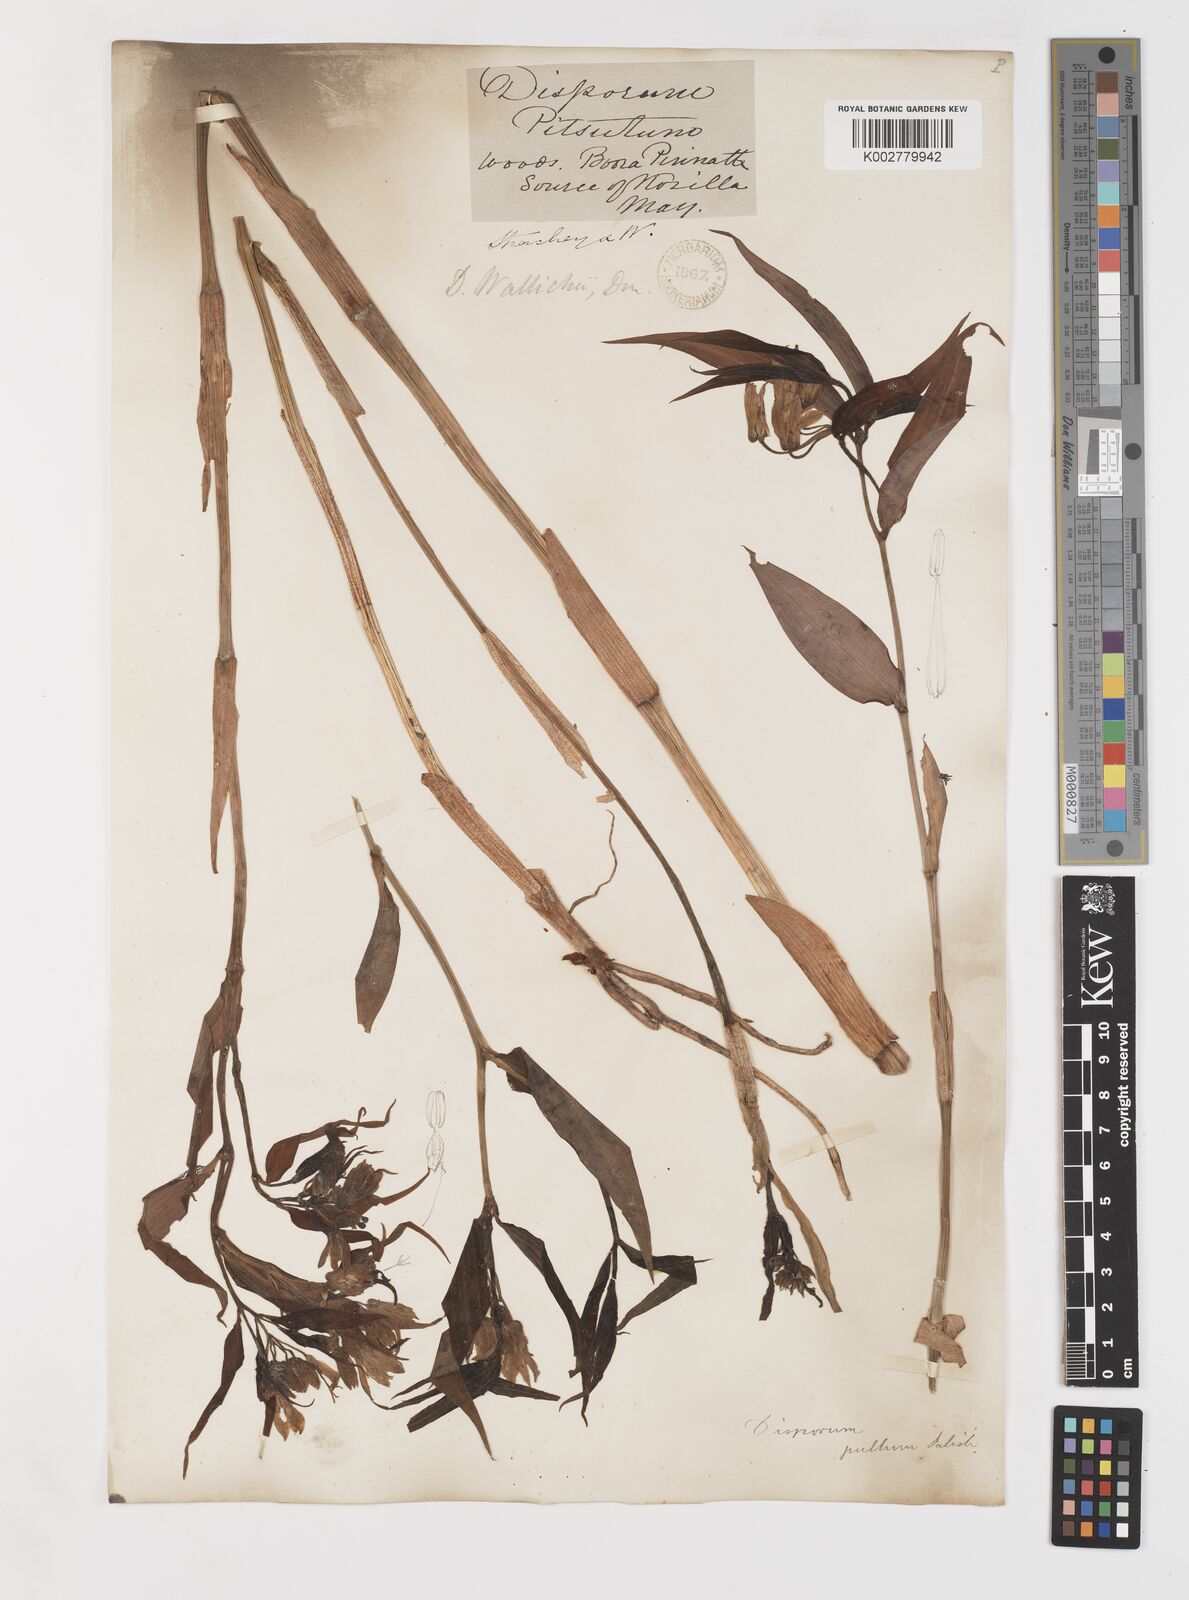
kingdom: Plantae
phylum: Tracheophyta
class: Liliopsida
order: Liliales
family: Colchicaceae
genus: Disporum
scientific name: Disporum cantoniense
